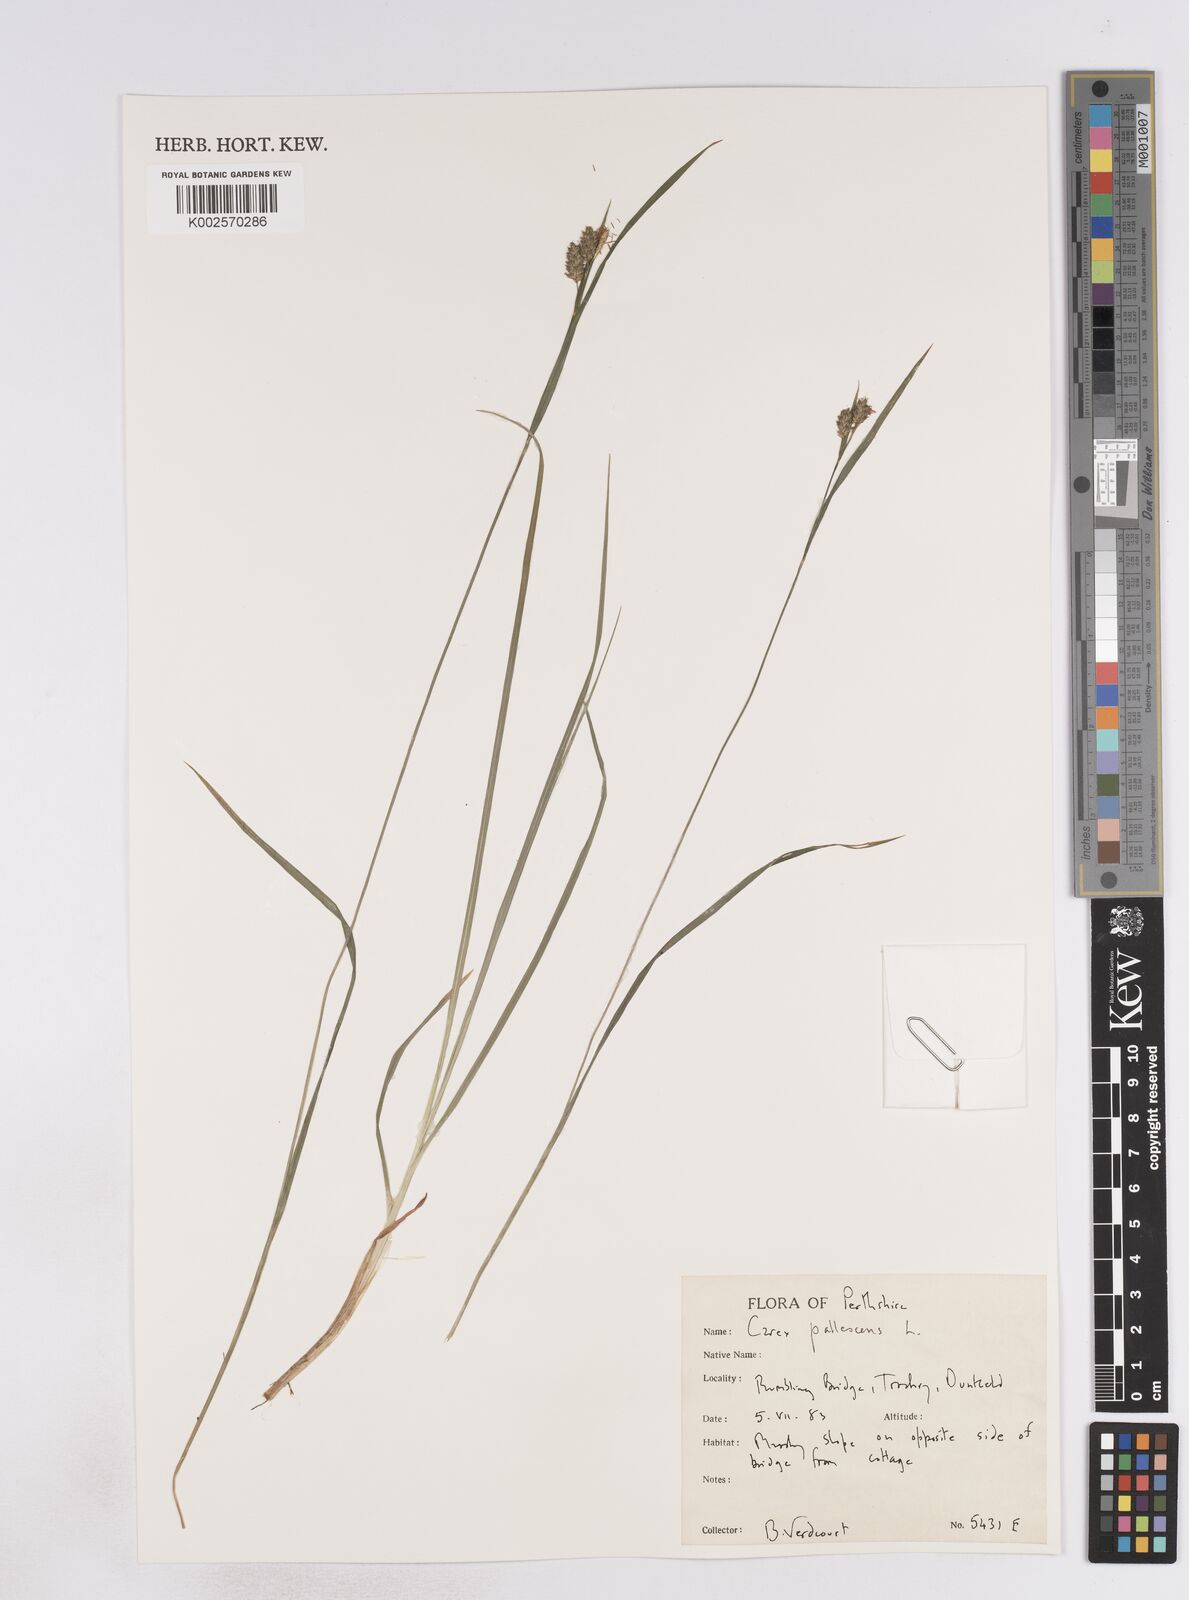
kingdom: Plantae
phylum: Tracheophyta
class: Liliopsida
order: Poales
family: Cyperaceae
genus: Carex
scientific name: Carex pallescens
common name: Pale sedge
